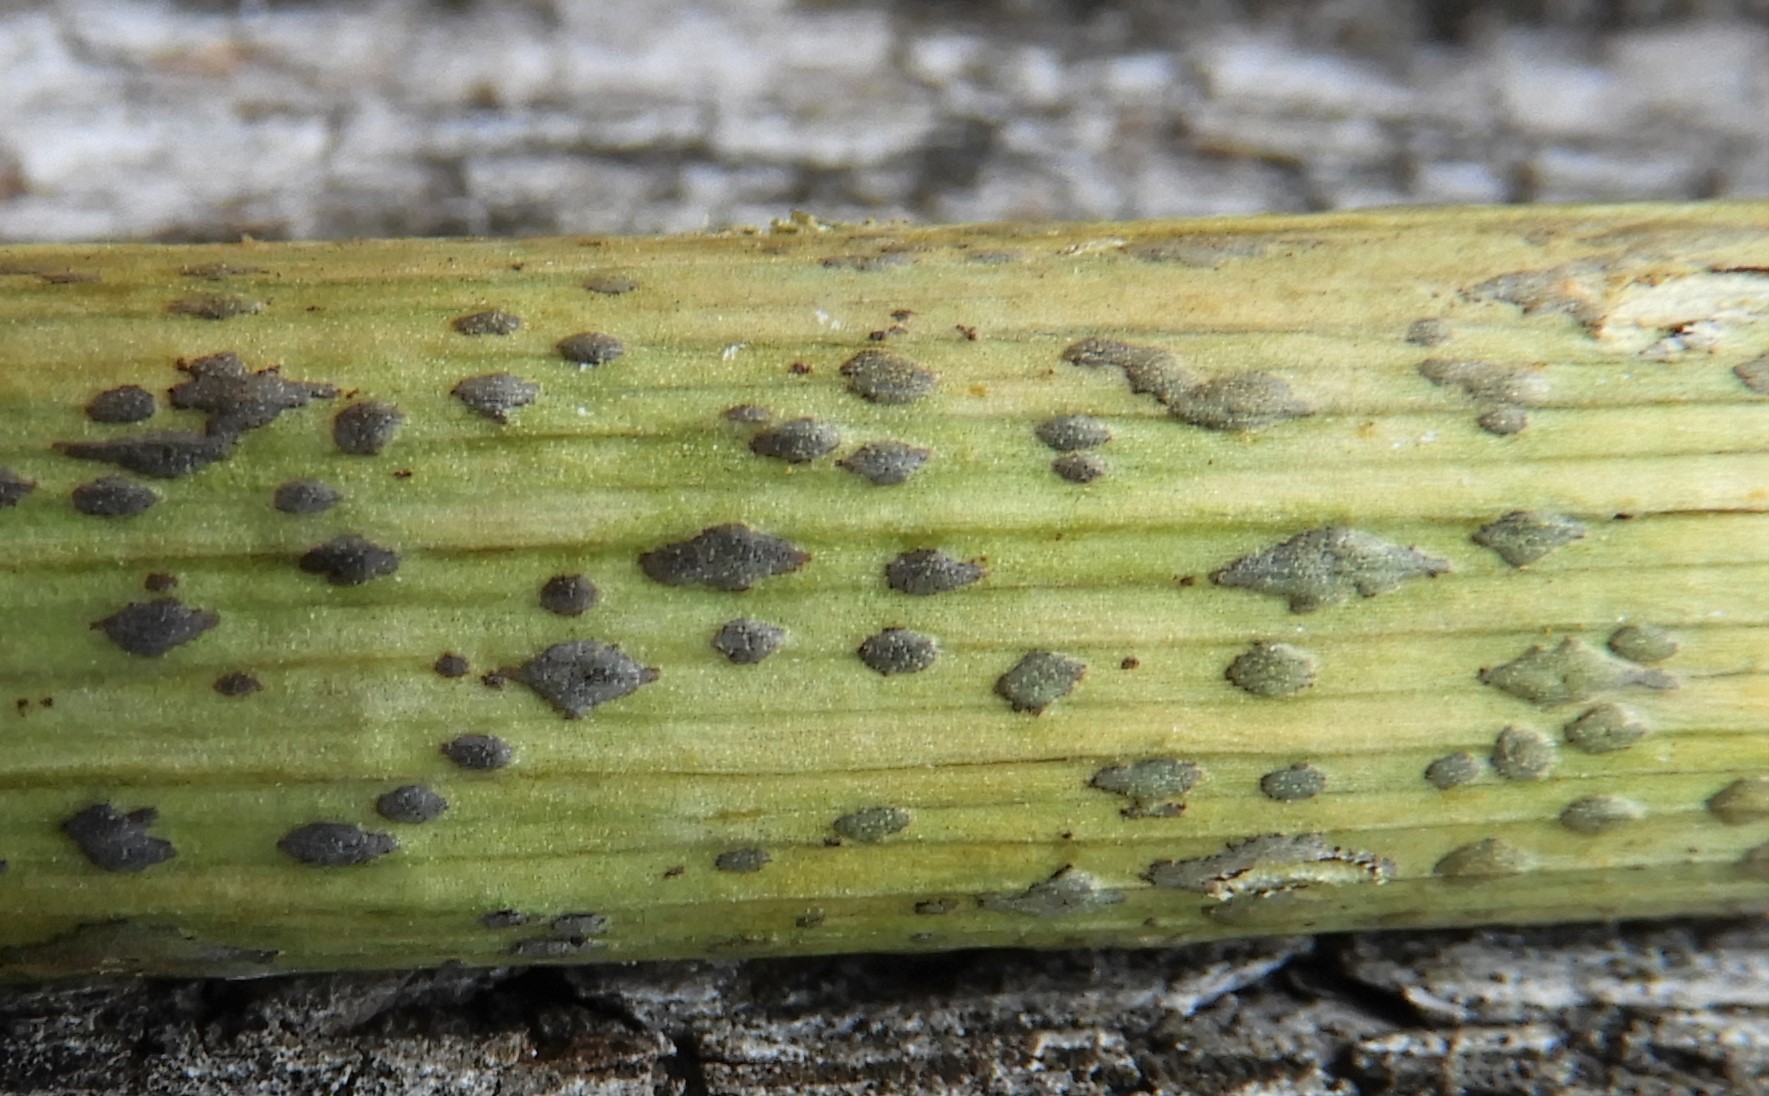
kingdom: Fungi
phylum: Basidiomycota
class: Pucciniomycetes
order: Pucciniales
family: Pucciniaceae
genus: Puccinia
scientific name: Puccinia porri
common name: Allium rust
